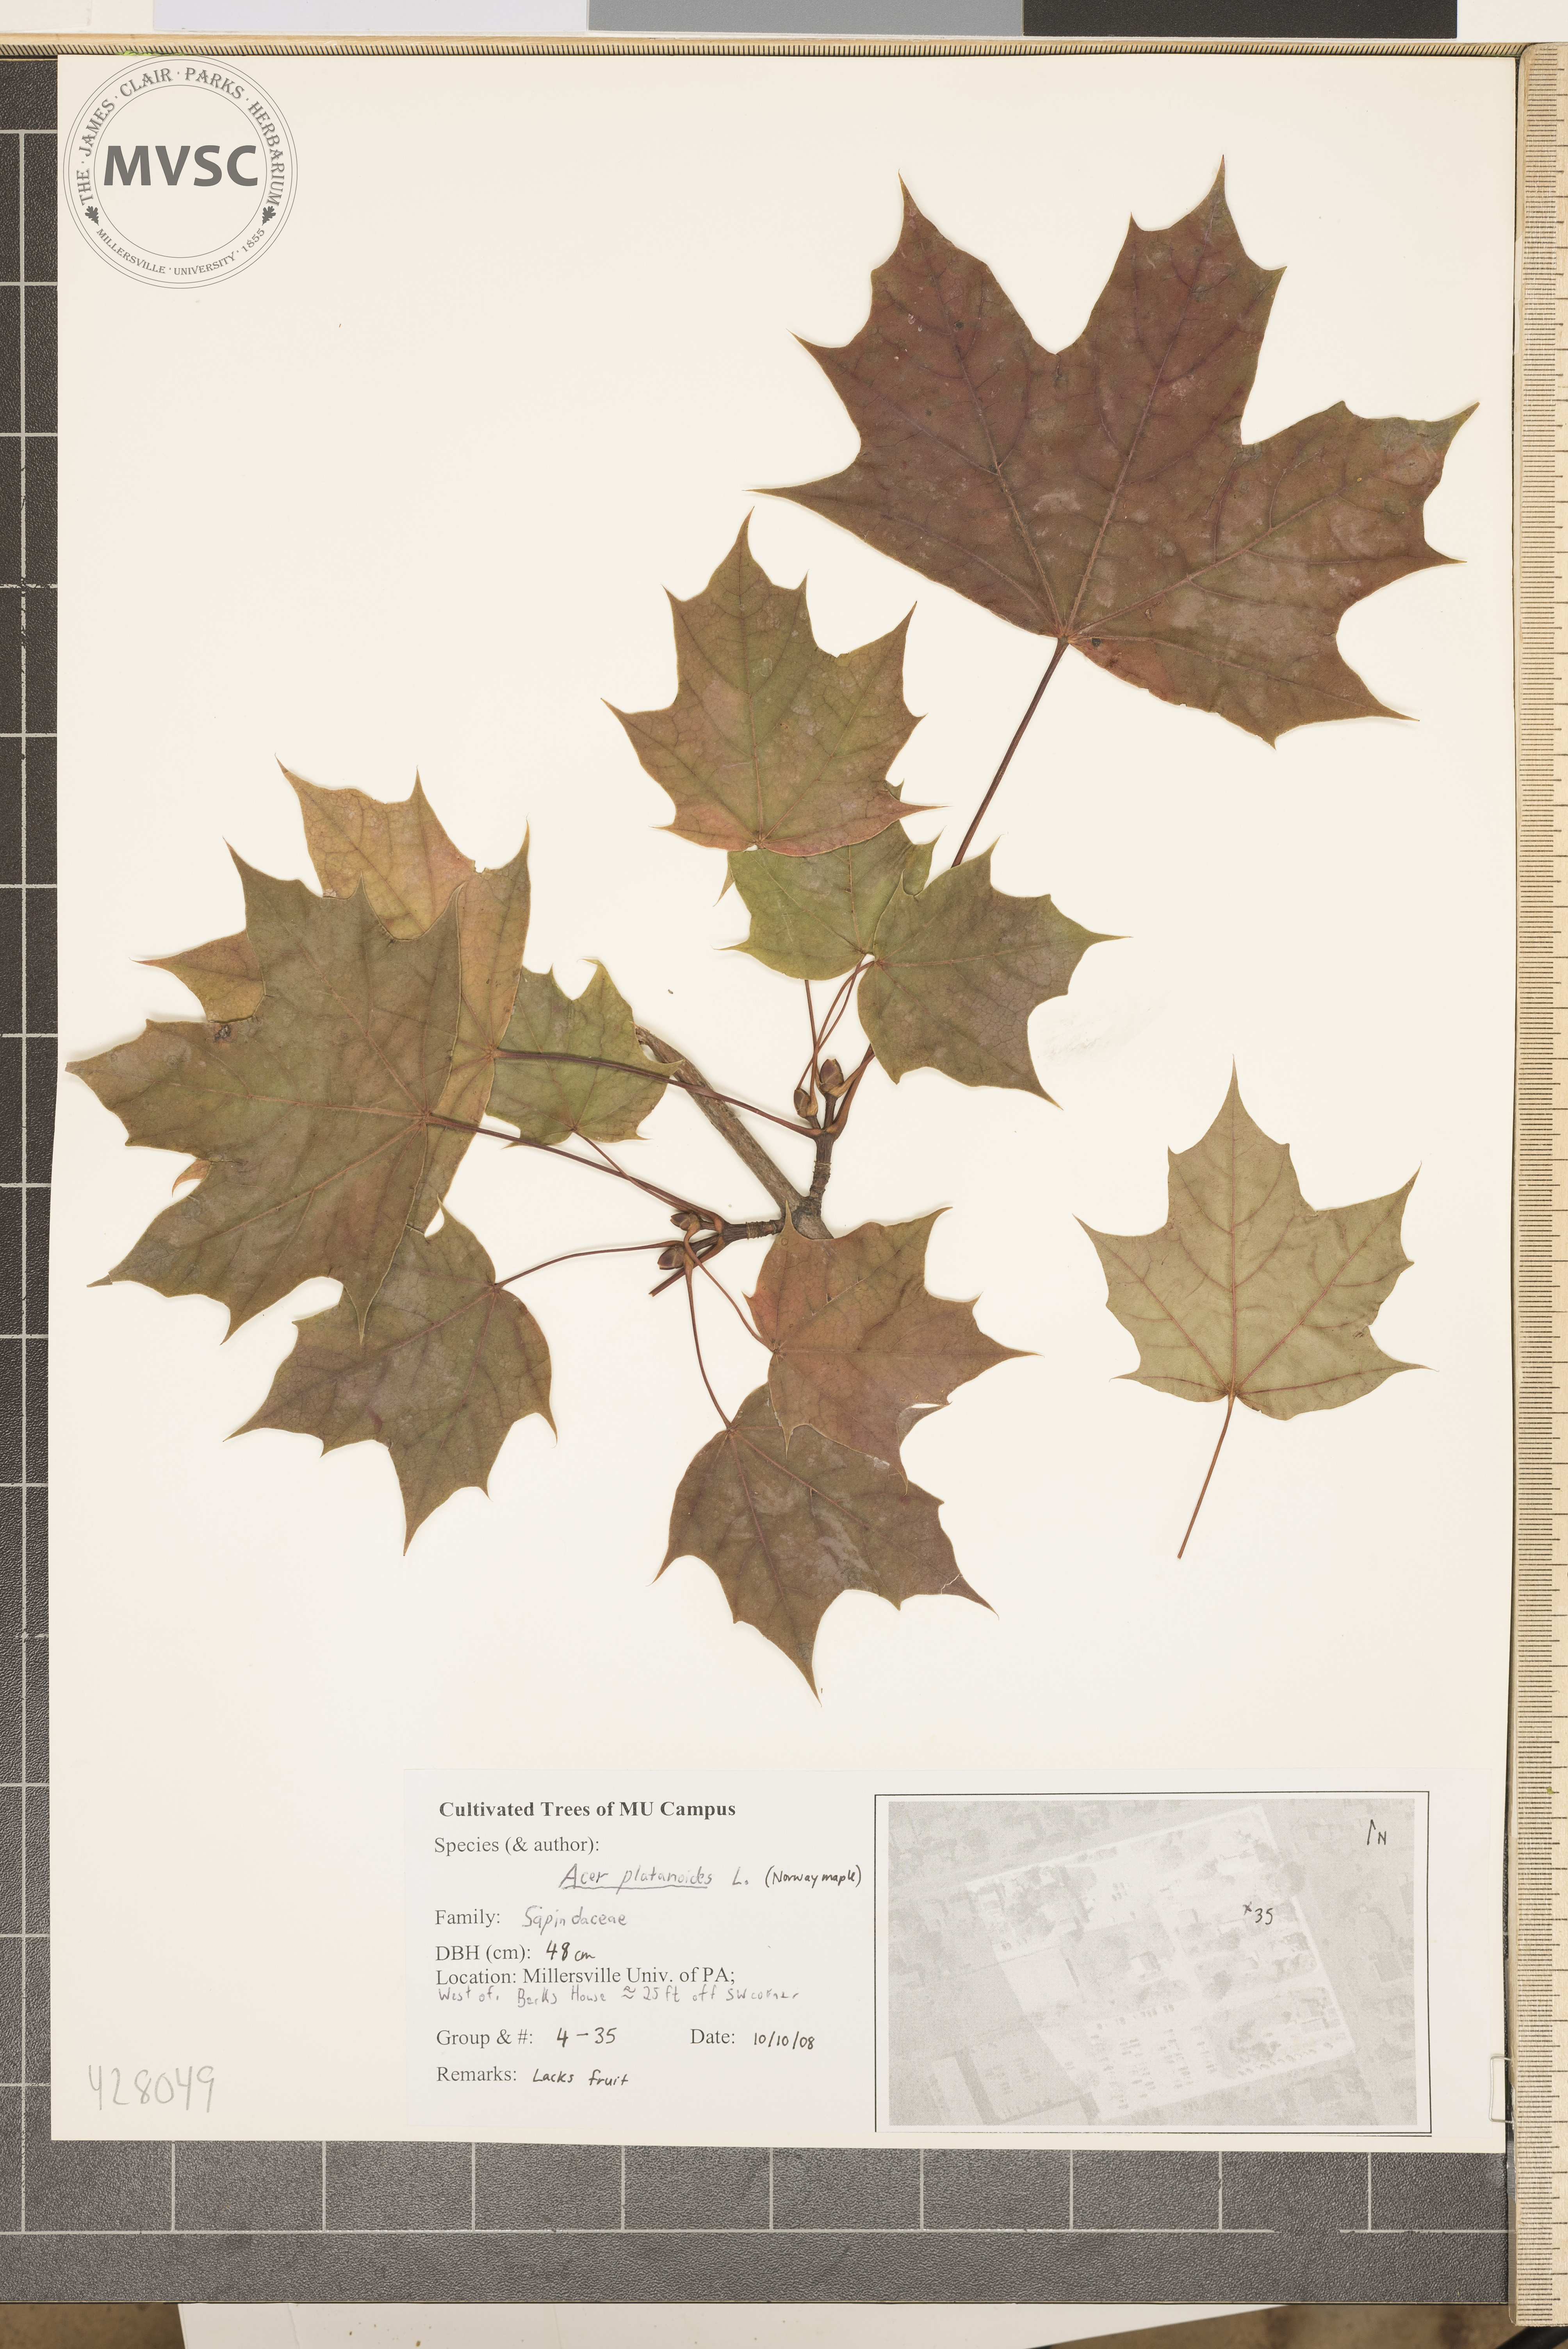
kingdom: Plantae
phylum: Tracheophyta
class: Magnoliopsida
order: Sapindales
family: Sapindaceae
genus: Acer
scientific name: Acer platanoides
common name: Norway Maple
